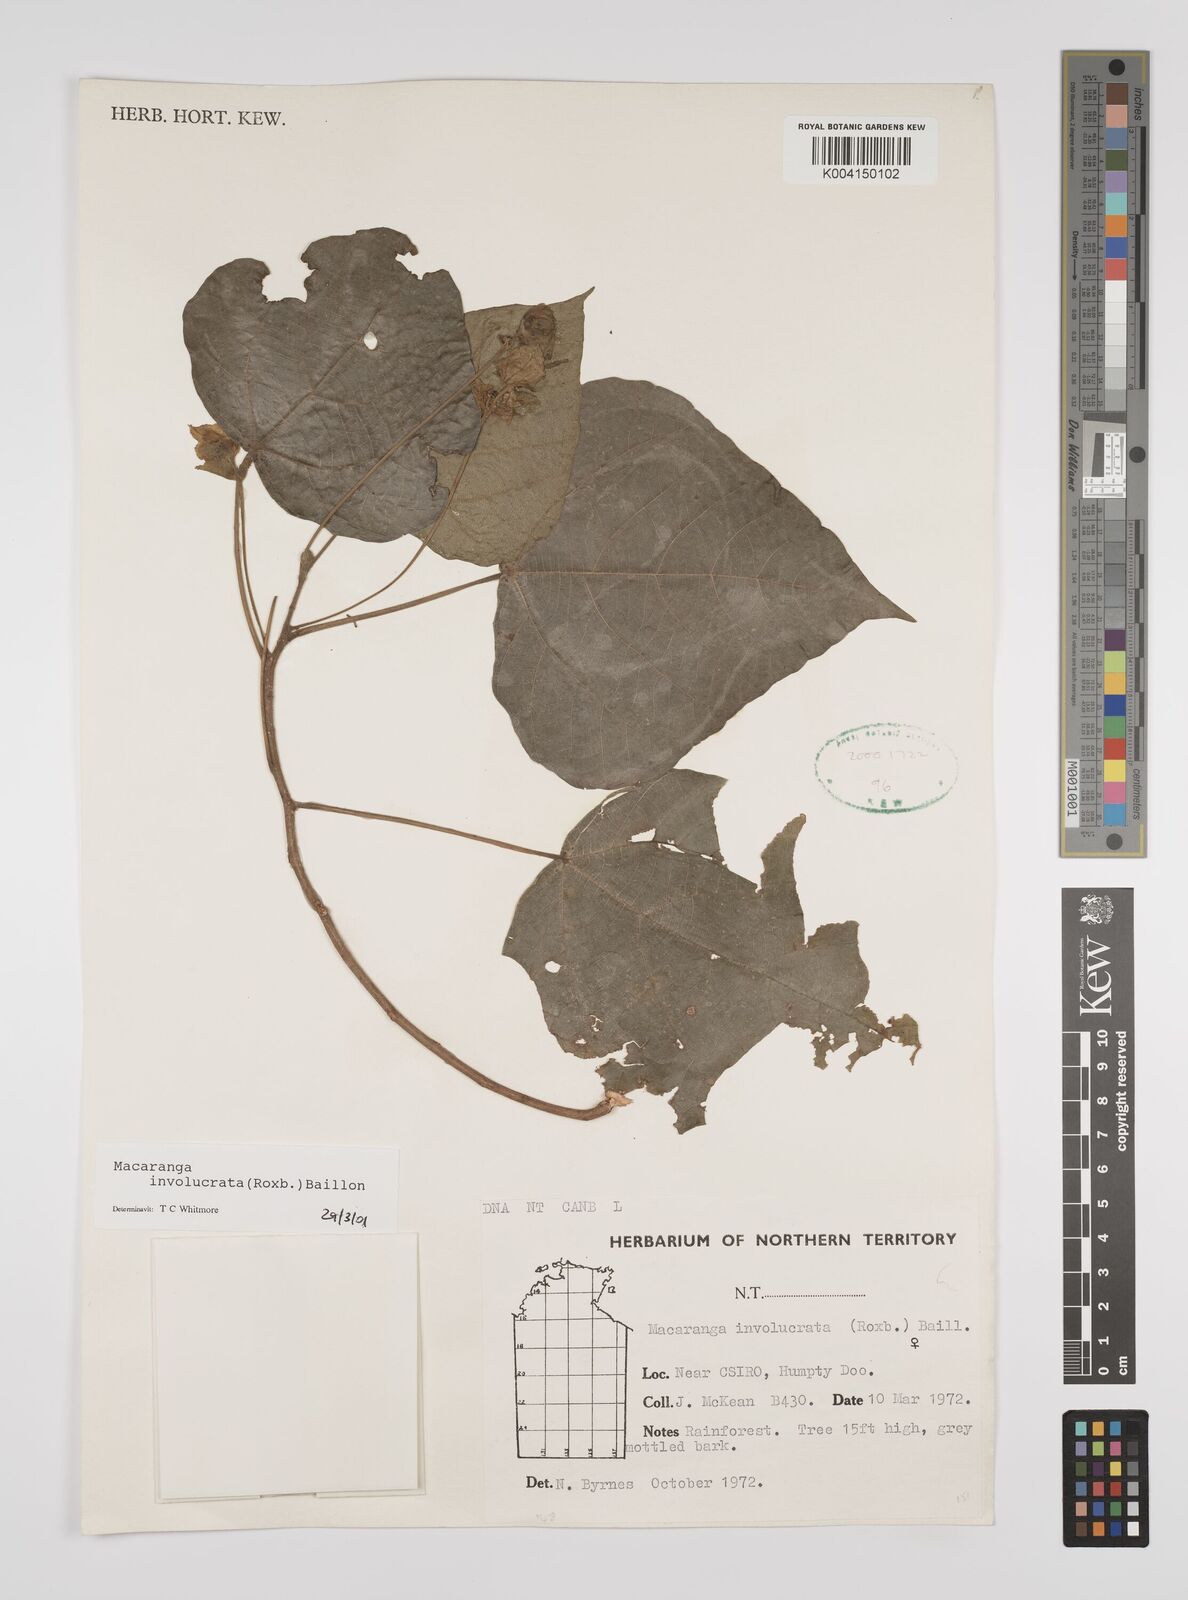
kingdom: Plantae
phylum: Tracheophyta
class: Magnoliopsida
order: Malpighiales
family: Euphorbiaceae
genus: Macaranga
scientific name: Macaranga involucrata
